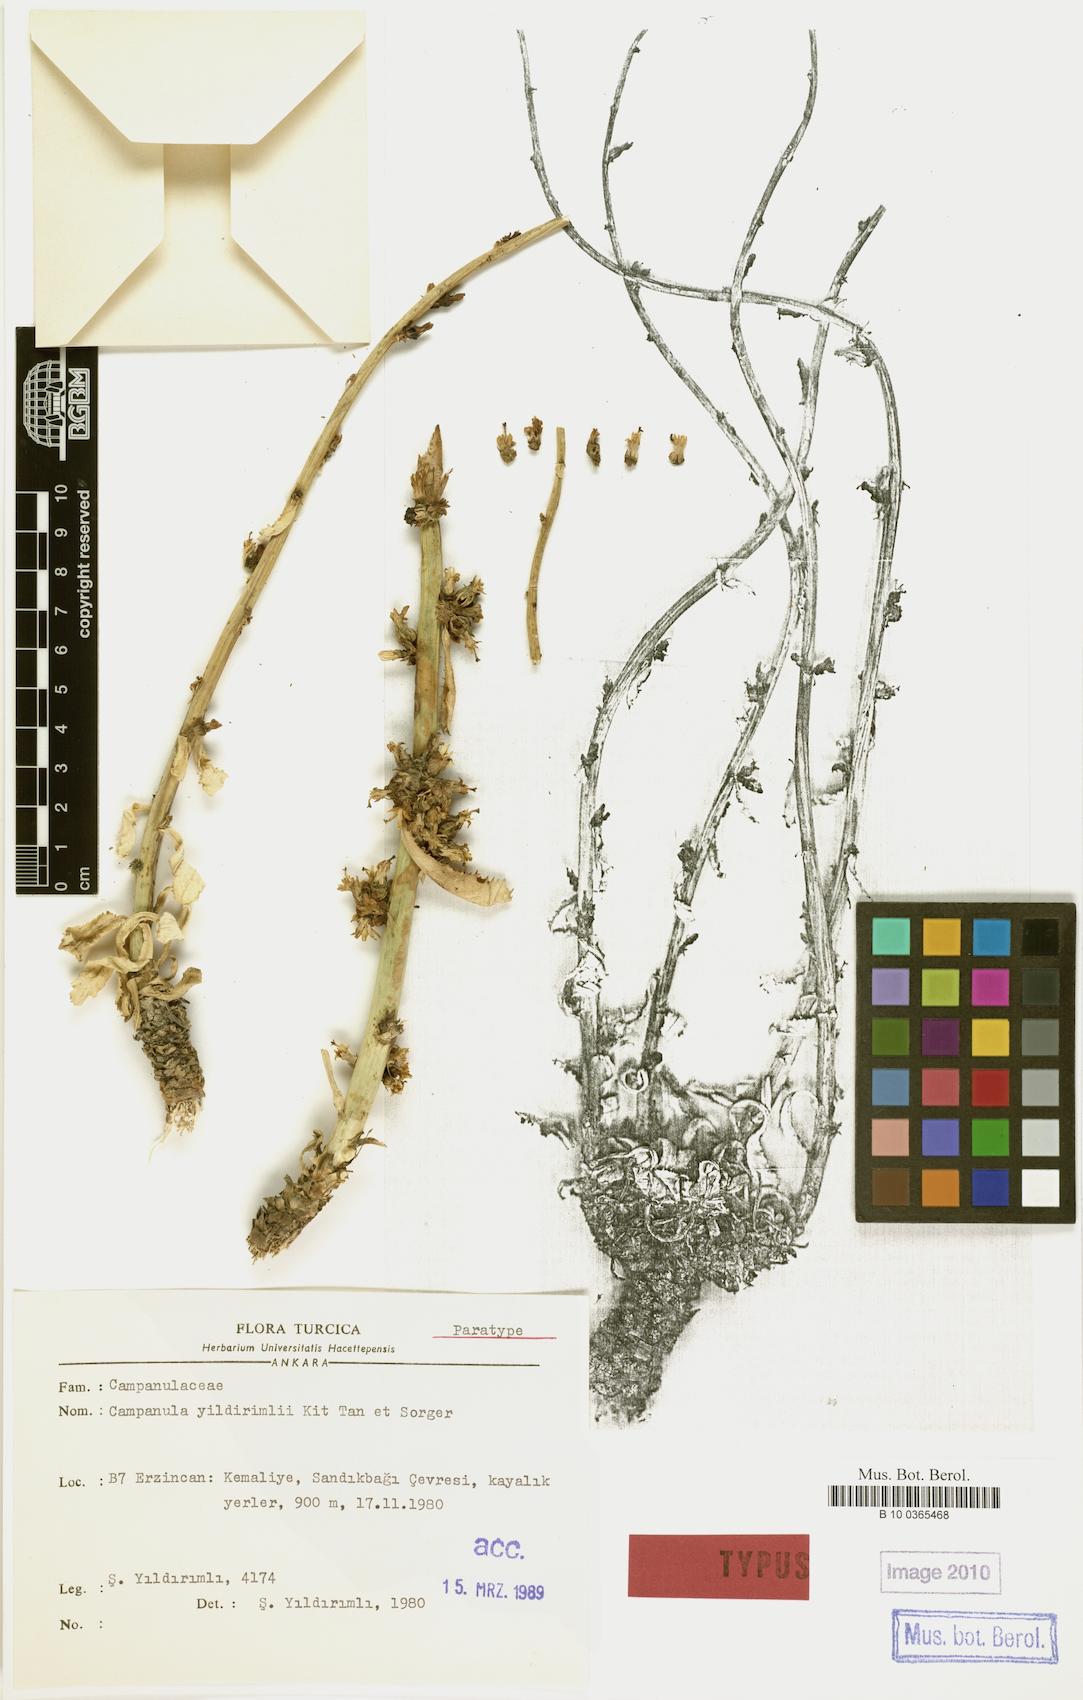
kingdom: Plantae
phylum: Tracheophyta
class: Magnoliopsida
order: Asterales
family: Campanulaceae
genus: Campanula
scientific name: Campanula yildirimlii
